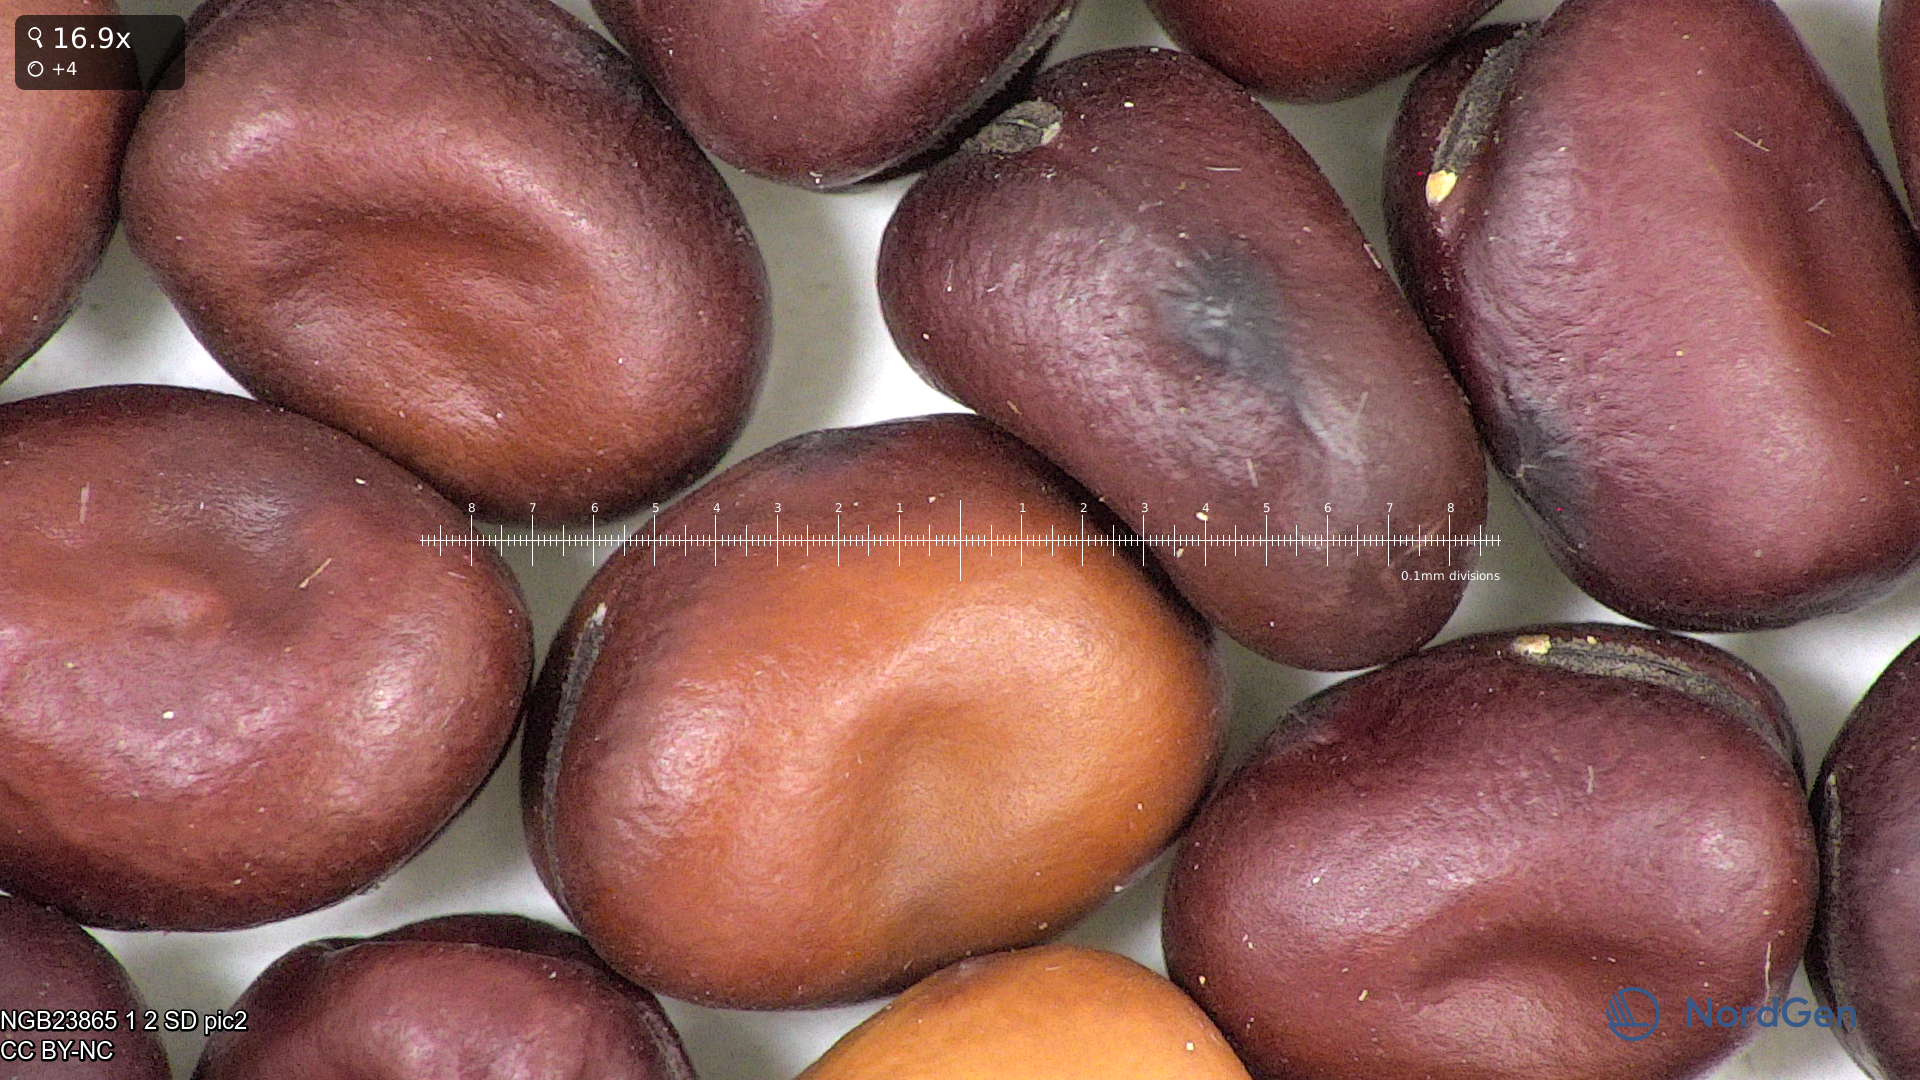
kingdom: Plantae
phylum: Tracheophyta
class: Magnoliopsida
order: Fabales
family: Fabaceae
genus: Vicia
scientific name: Vicia faba
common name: Broad bean
